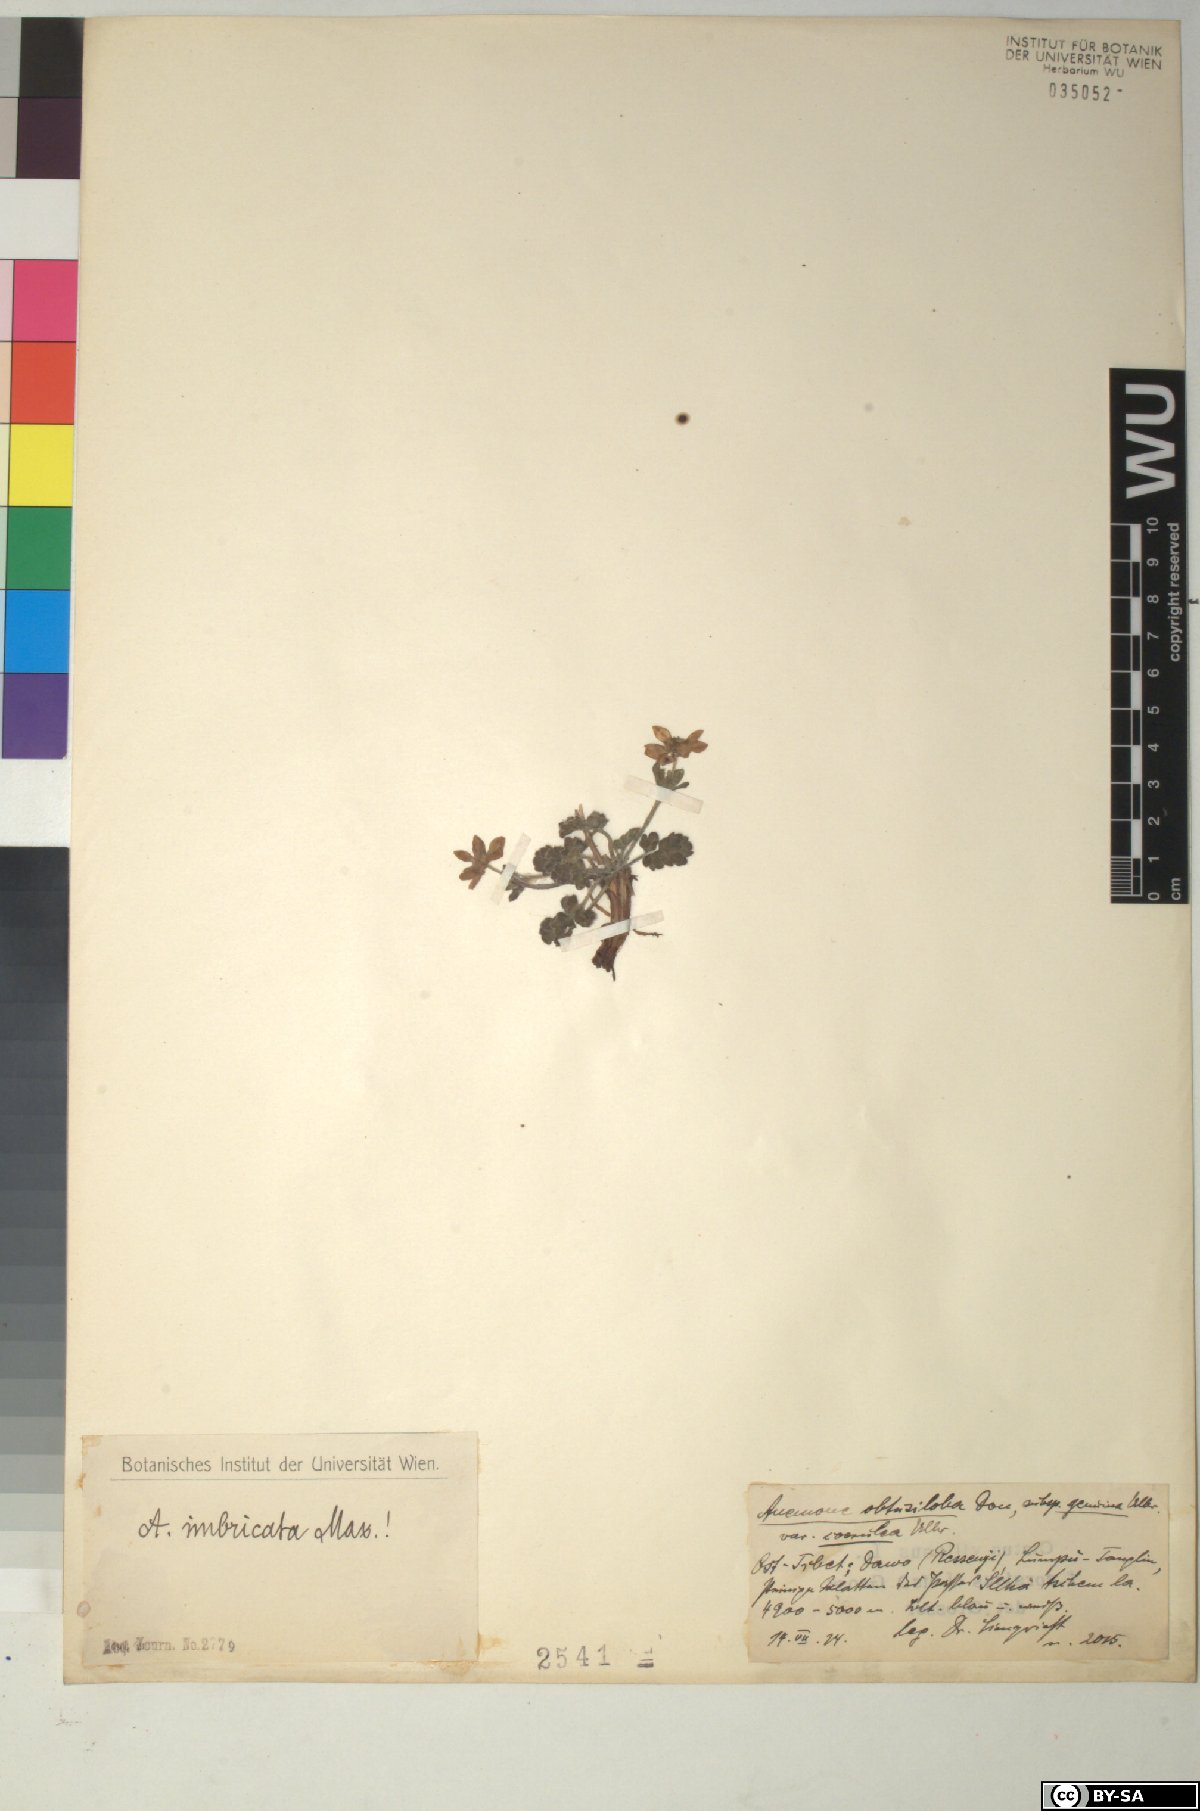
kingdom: Plantae
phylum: Tracheophyta
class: Magnoliopsida
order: Ranunculales
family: Ranunculaceae
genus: Anemonastrum
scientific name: Anemonastrum imbricatum
